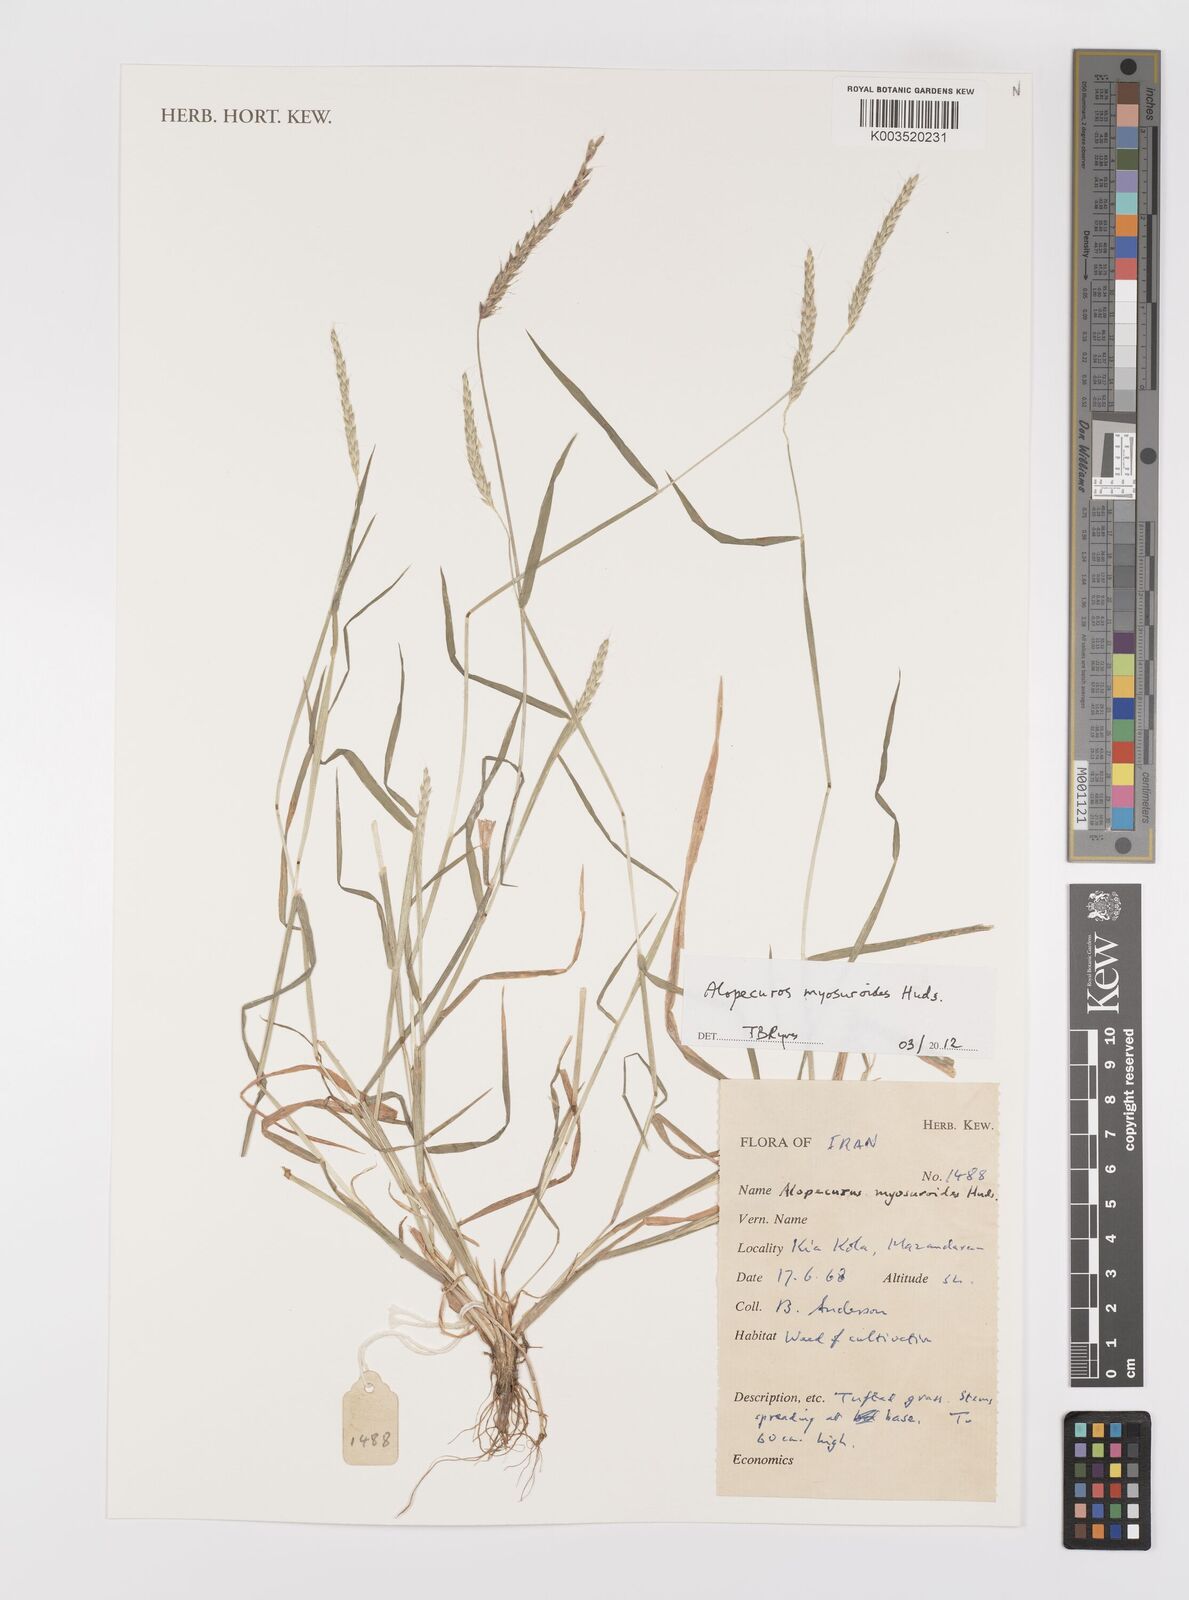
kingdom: Plantae
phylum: Tracheophyta
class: Liliopsida
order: Poales
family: Poaceae
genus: Alopecurus
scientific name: Alopecurus myosuroides
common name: Black-grass
